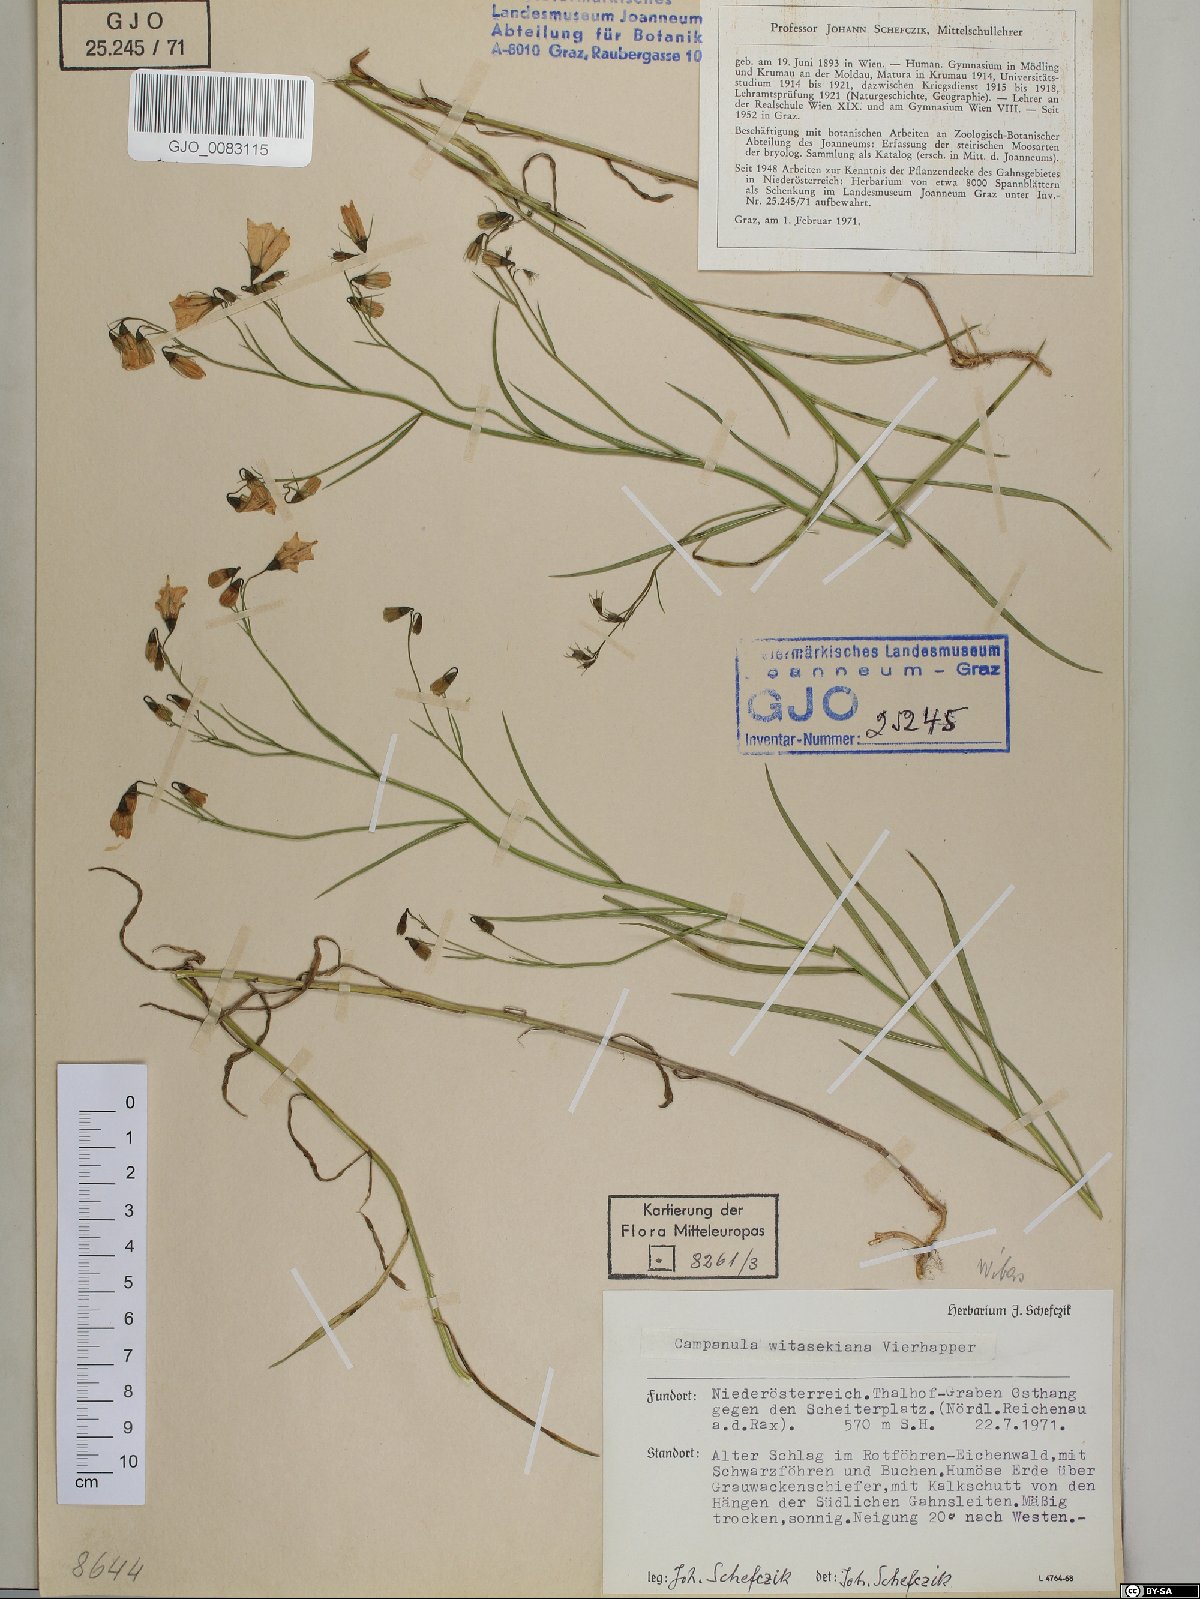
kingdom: Plantae
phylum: Tracheophyta
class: Magnoliopsida
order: Asterales
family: Campanulaceae
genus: Campanula
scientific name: Campanula witasekiana
